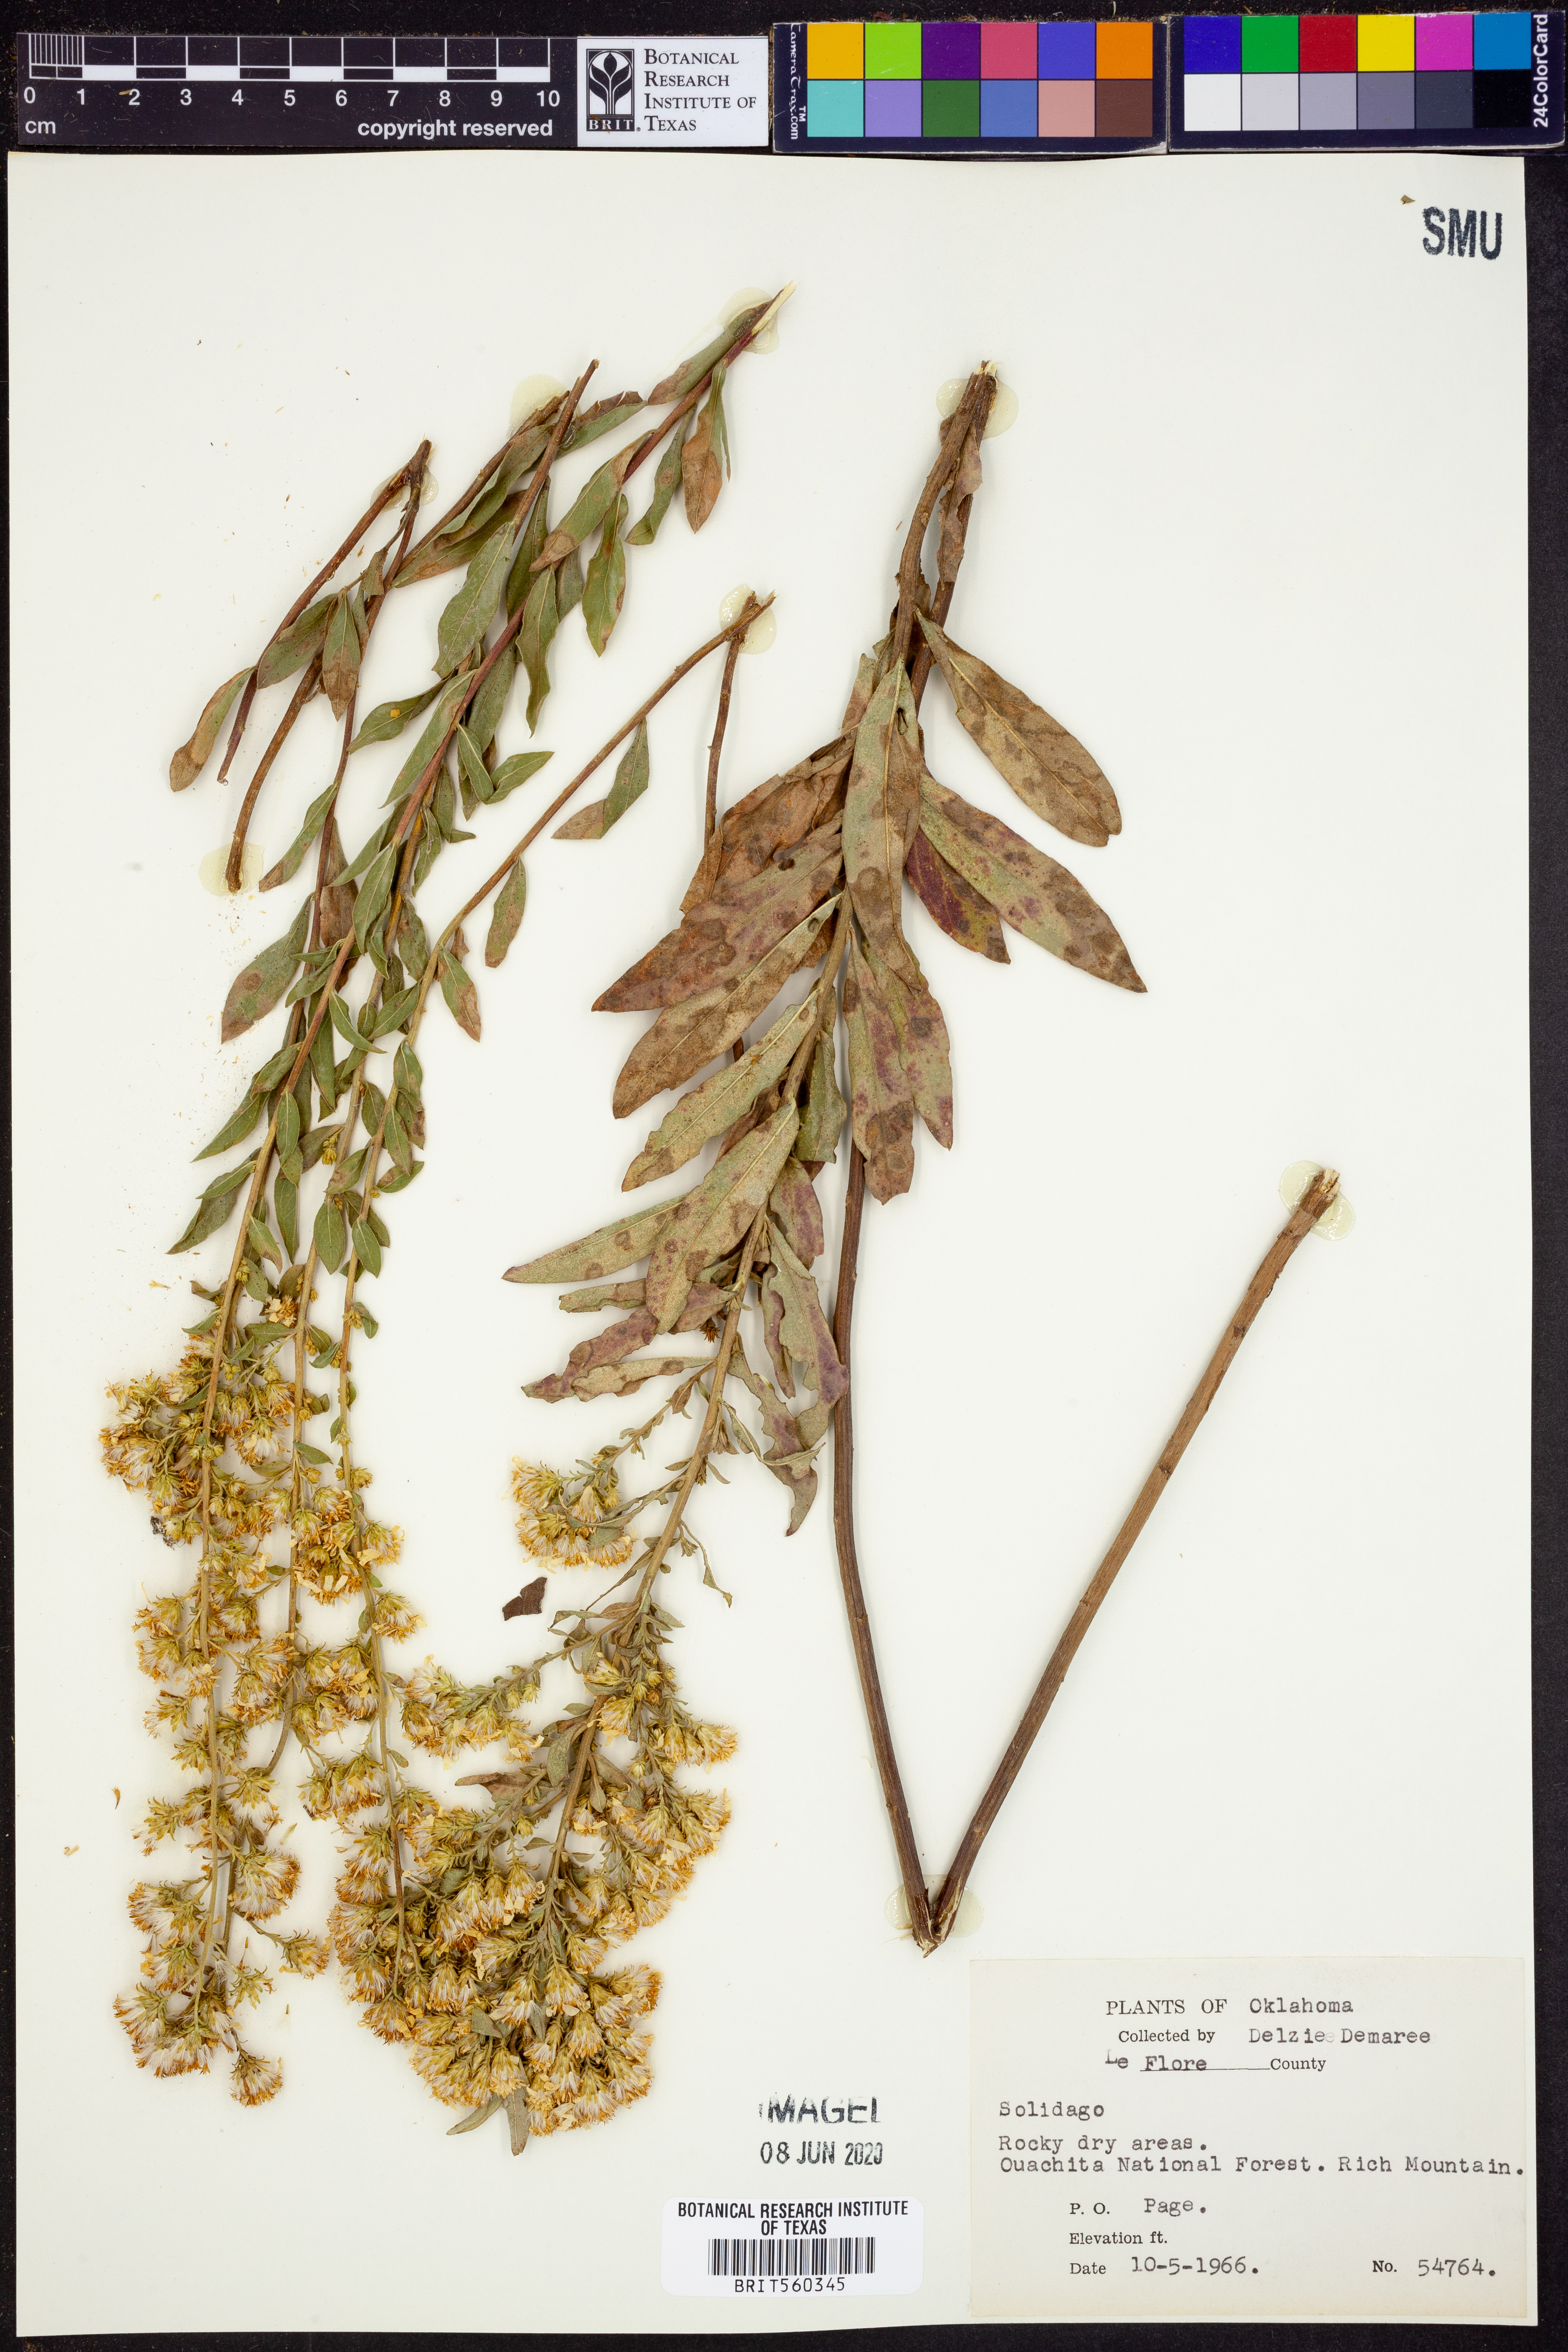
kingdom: Plantae
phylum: Tracheophyta
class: Magnoliopsida
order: Asterales
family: Asteraceae
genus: Solidago
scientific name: Solidago
